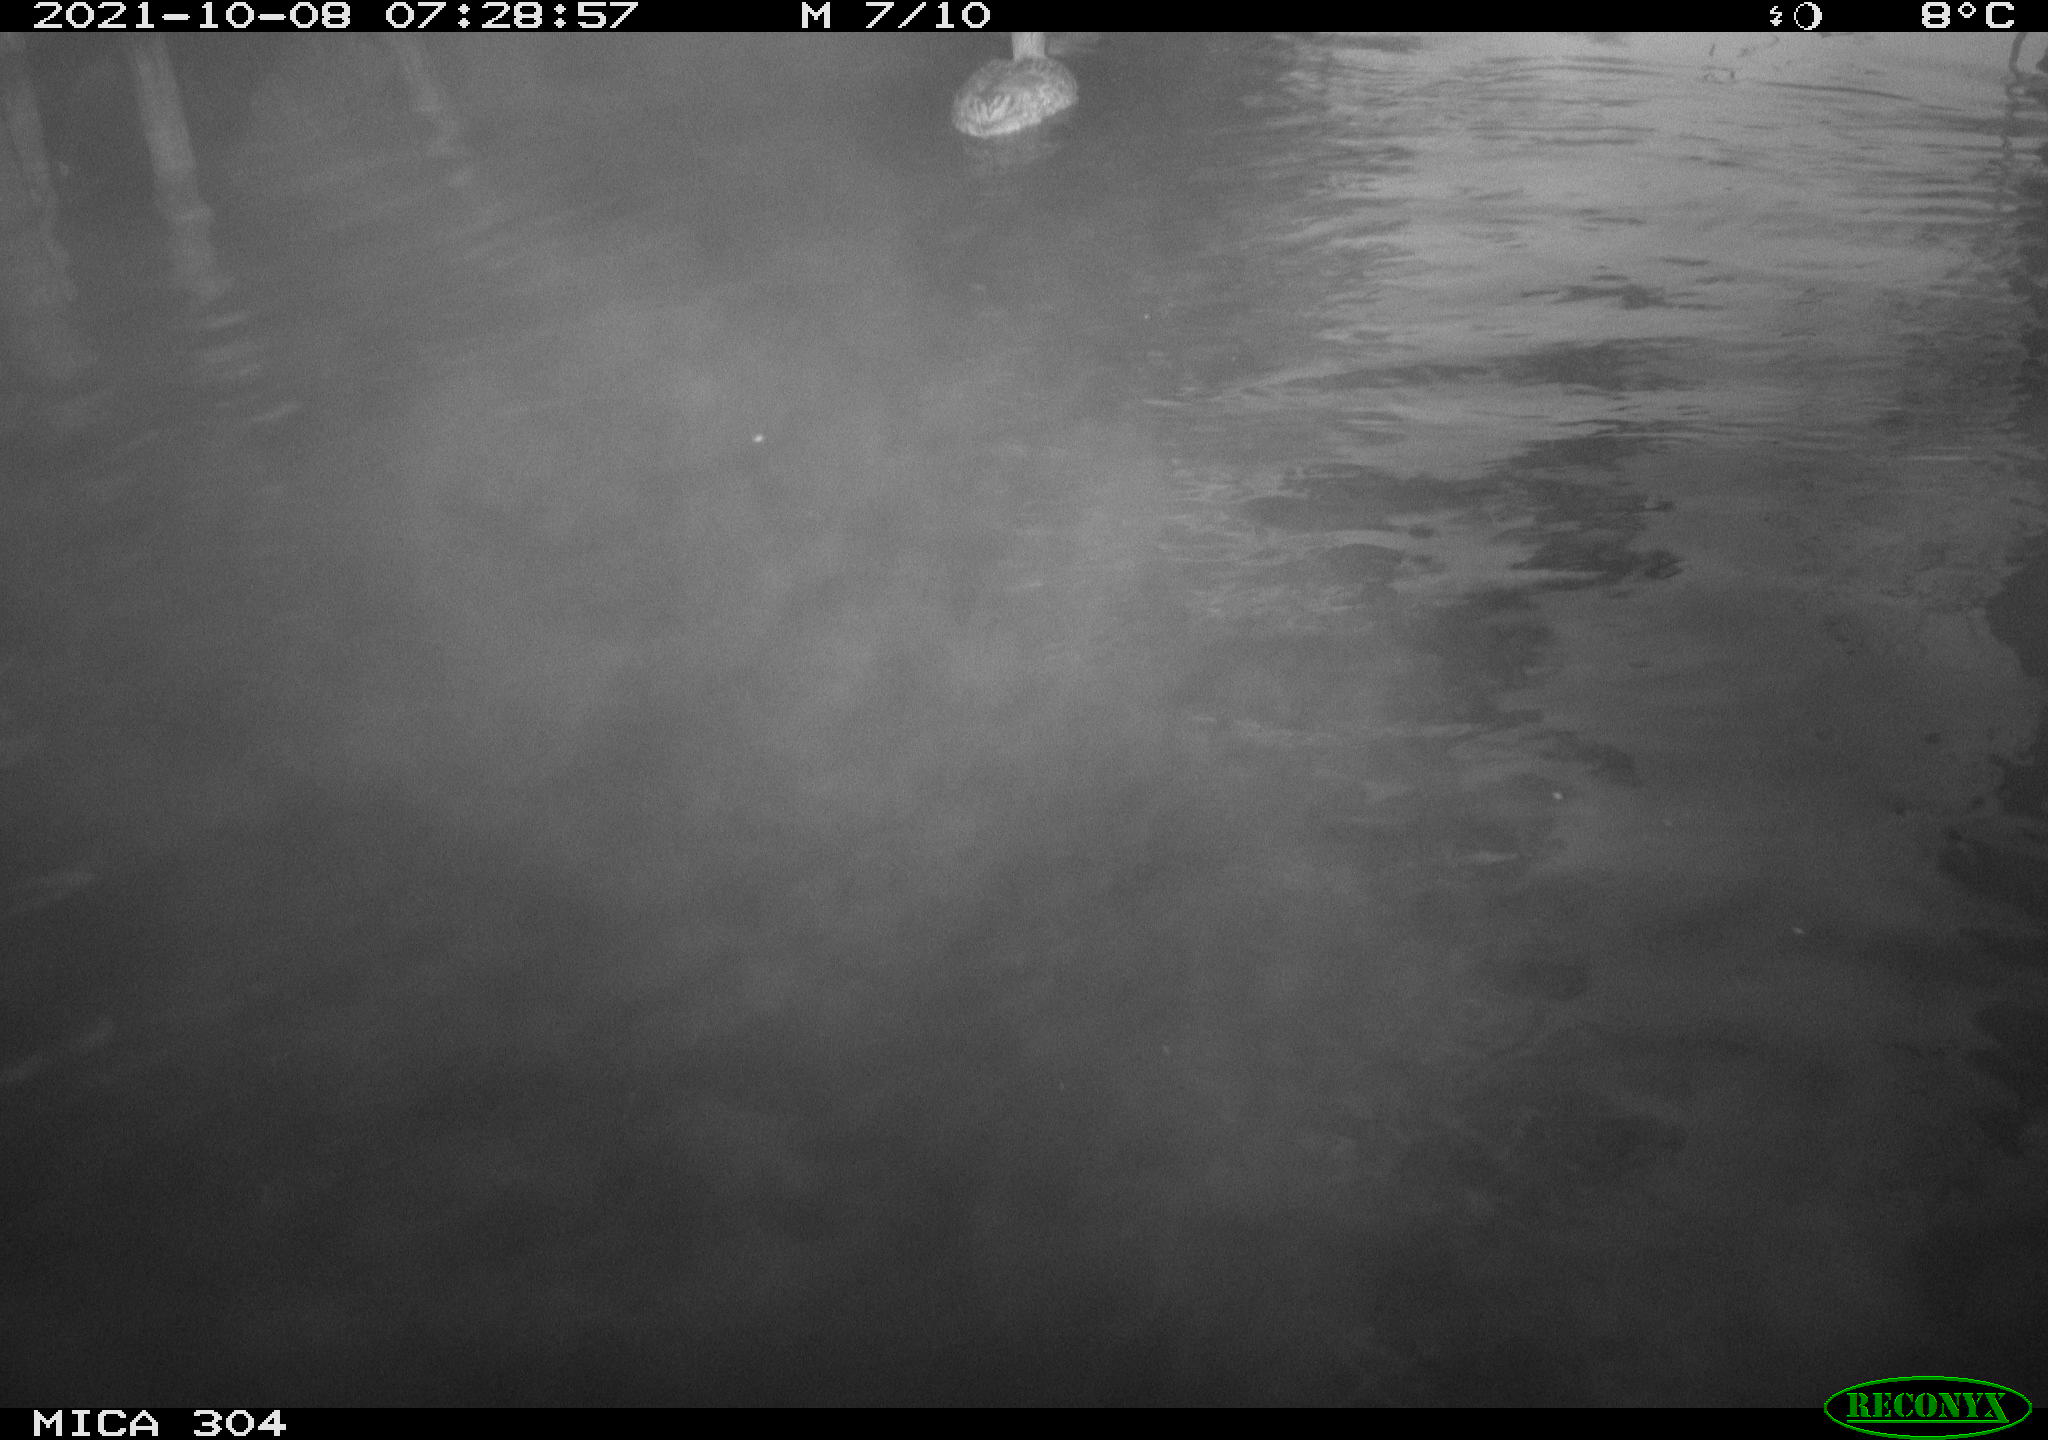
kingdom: Animalia
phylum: Chordata
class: Aves
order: Anseriformes
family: Anatidae
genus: Anas
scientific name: Anas platyrhynchos
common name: Mallard
